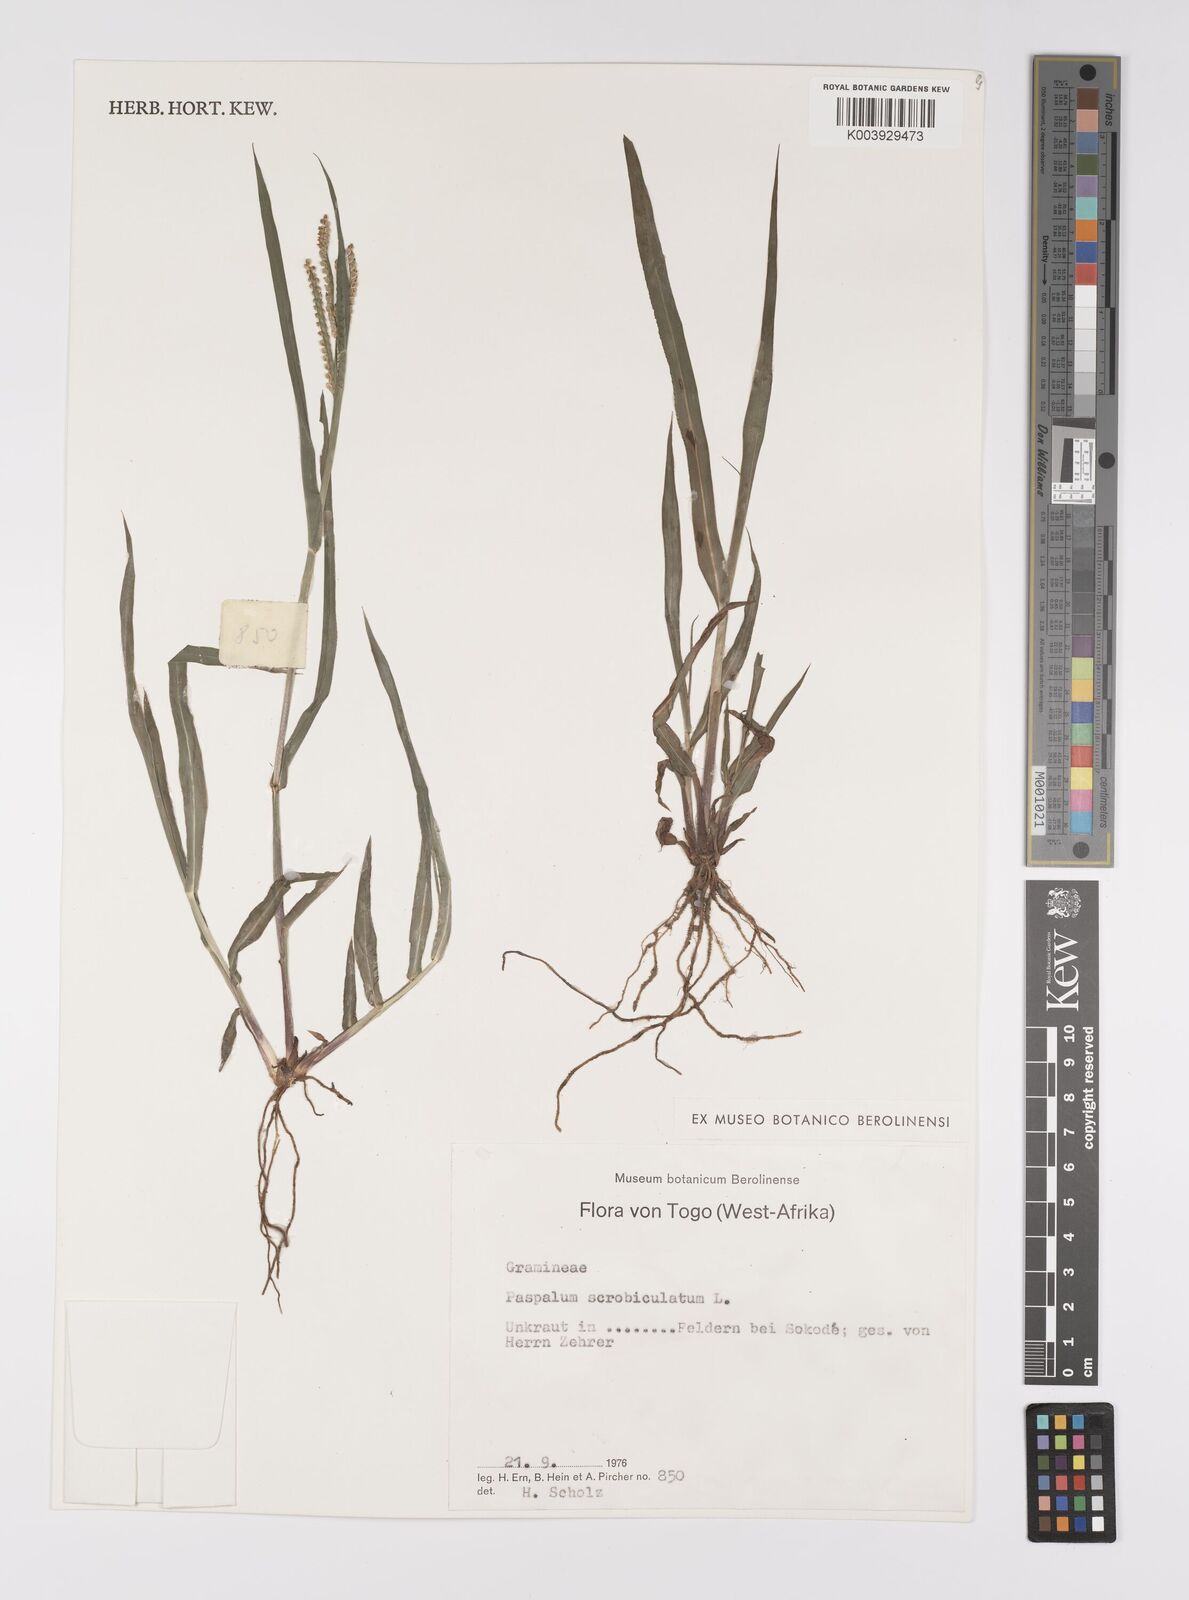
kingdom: Plantae
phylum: Tracheophyta
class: Liliopsida
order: Poales
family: Poaceae
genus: Paspalum
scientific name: Paspalum scrobiculatum
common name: Kodo millet
